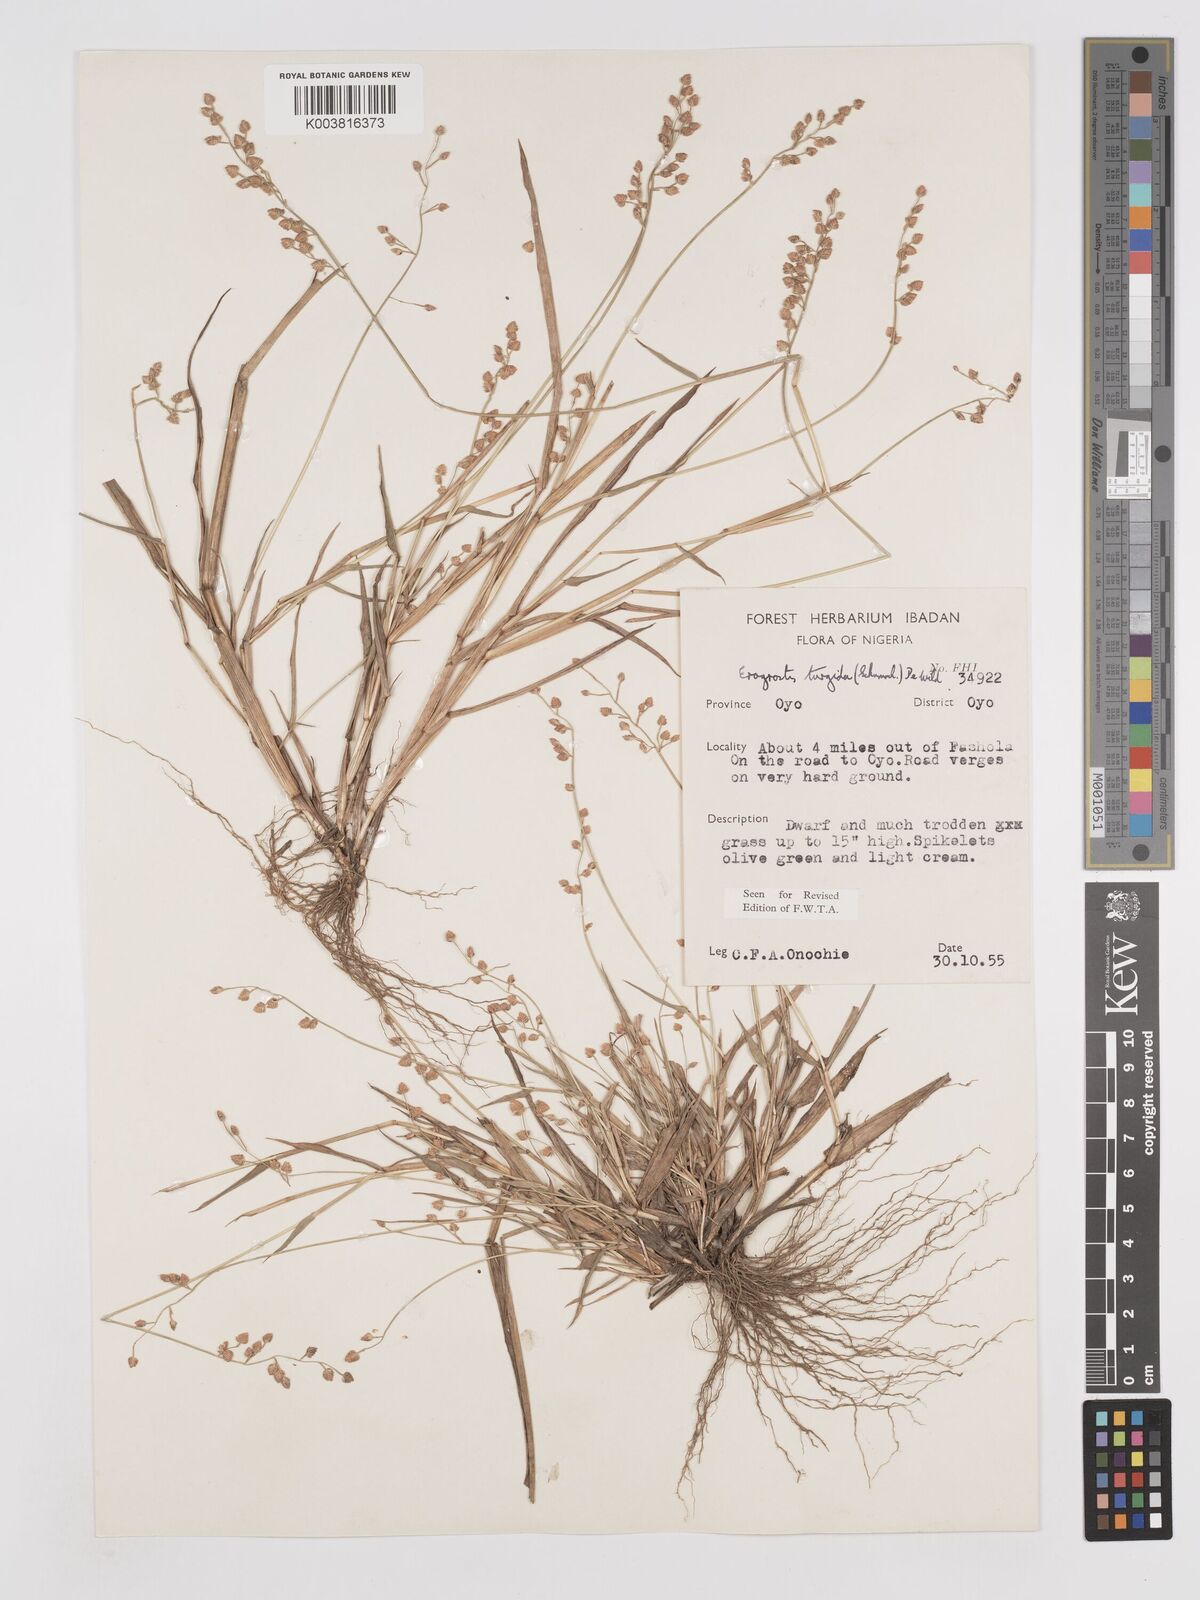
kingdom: Plantae
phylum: Tracheophyta
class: Liliopsida
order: Poales
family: Poaceae
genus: Eragrostis
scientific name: Eragrostis turgida
